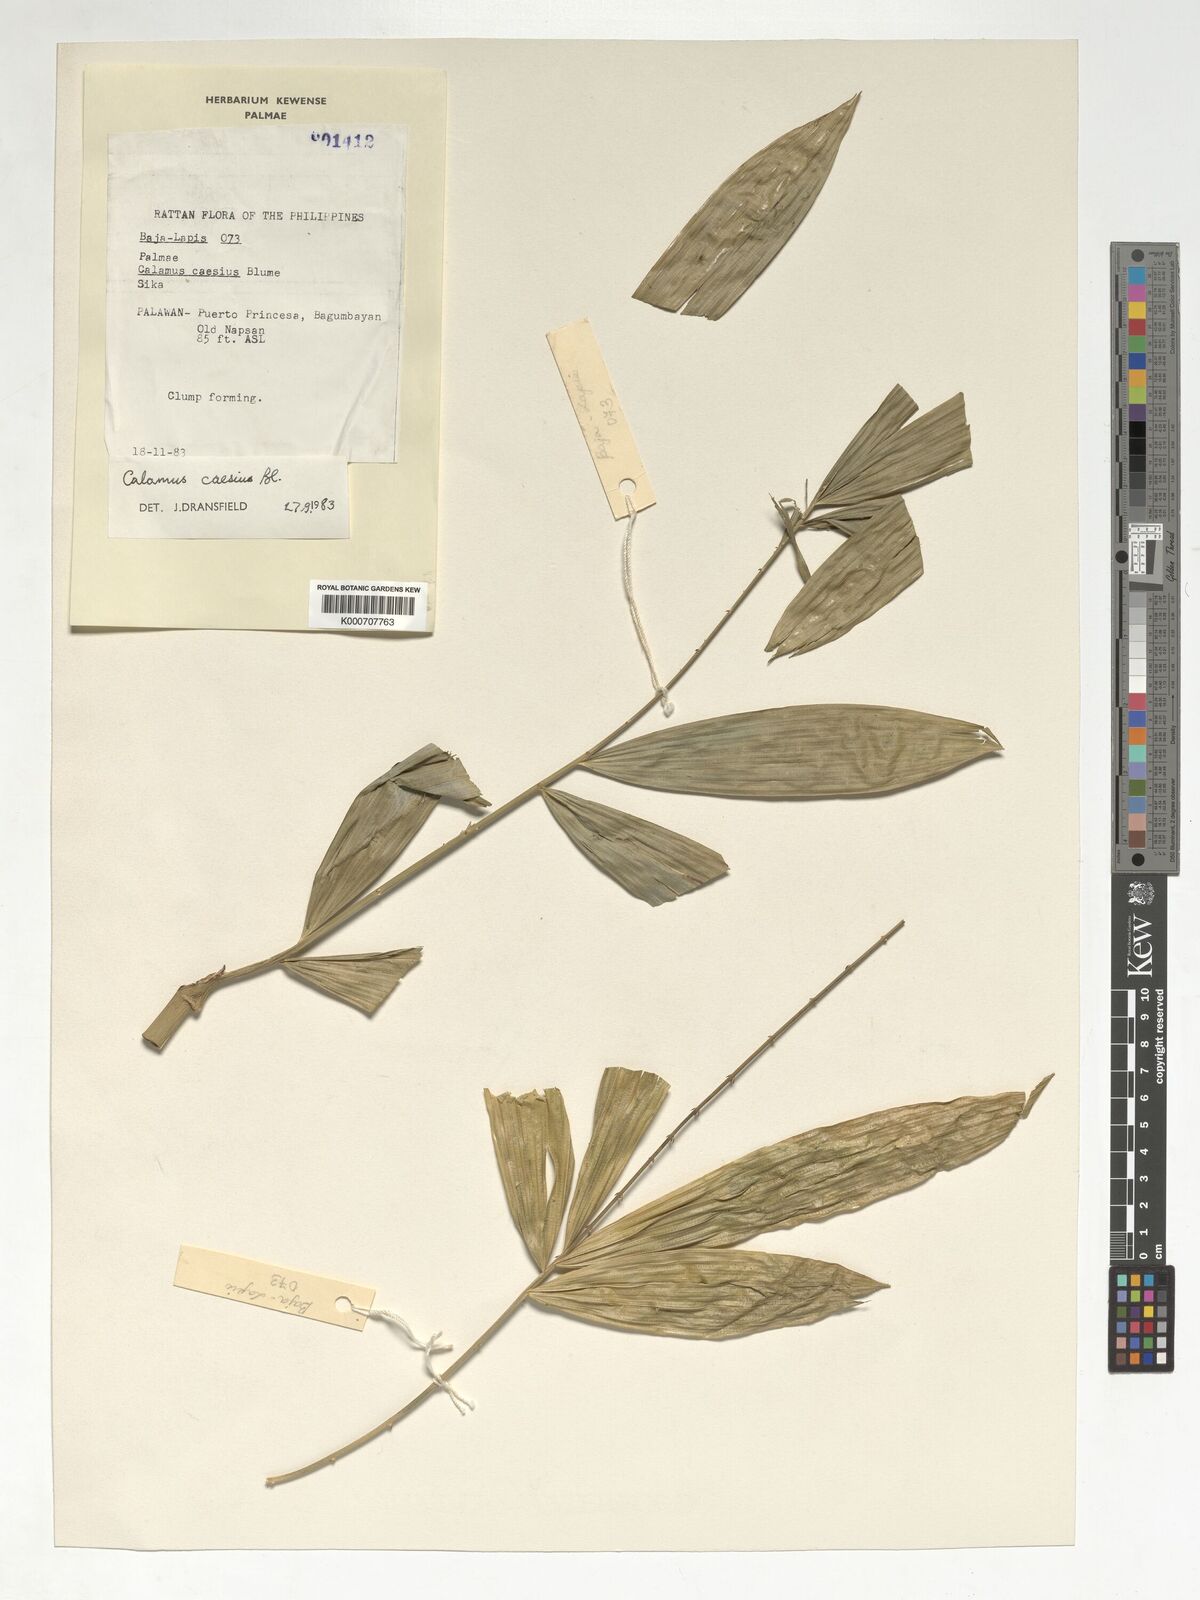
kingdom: Plantae
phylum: Tracheophyta
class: Liliopsida
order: Arecales
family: Arecaceae
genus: Calamus
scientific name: Calamus caesius
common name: Rattan palm
